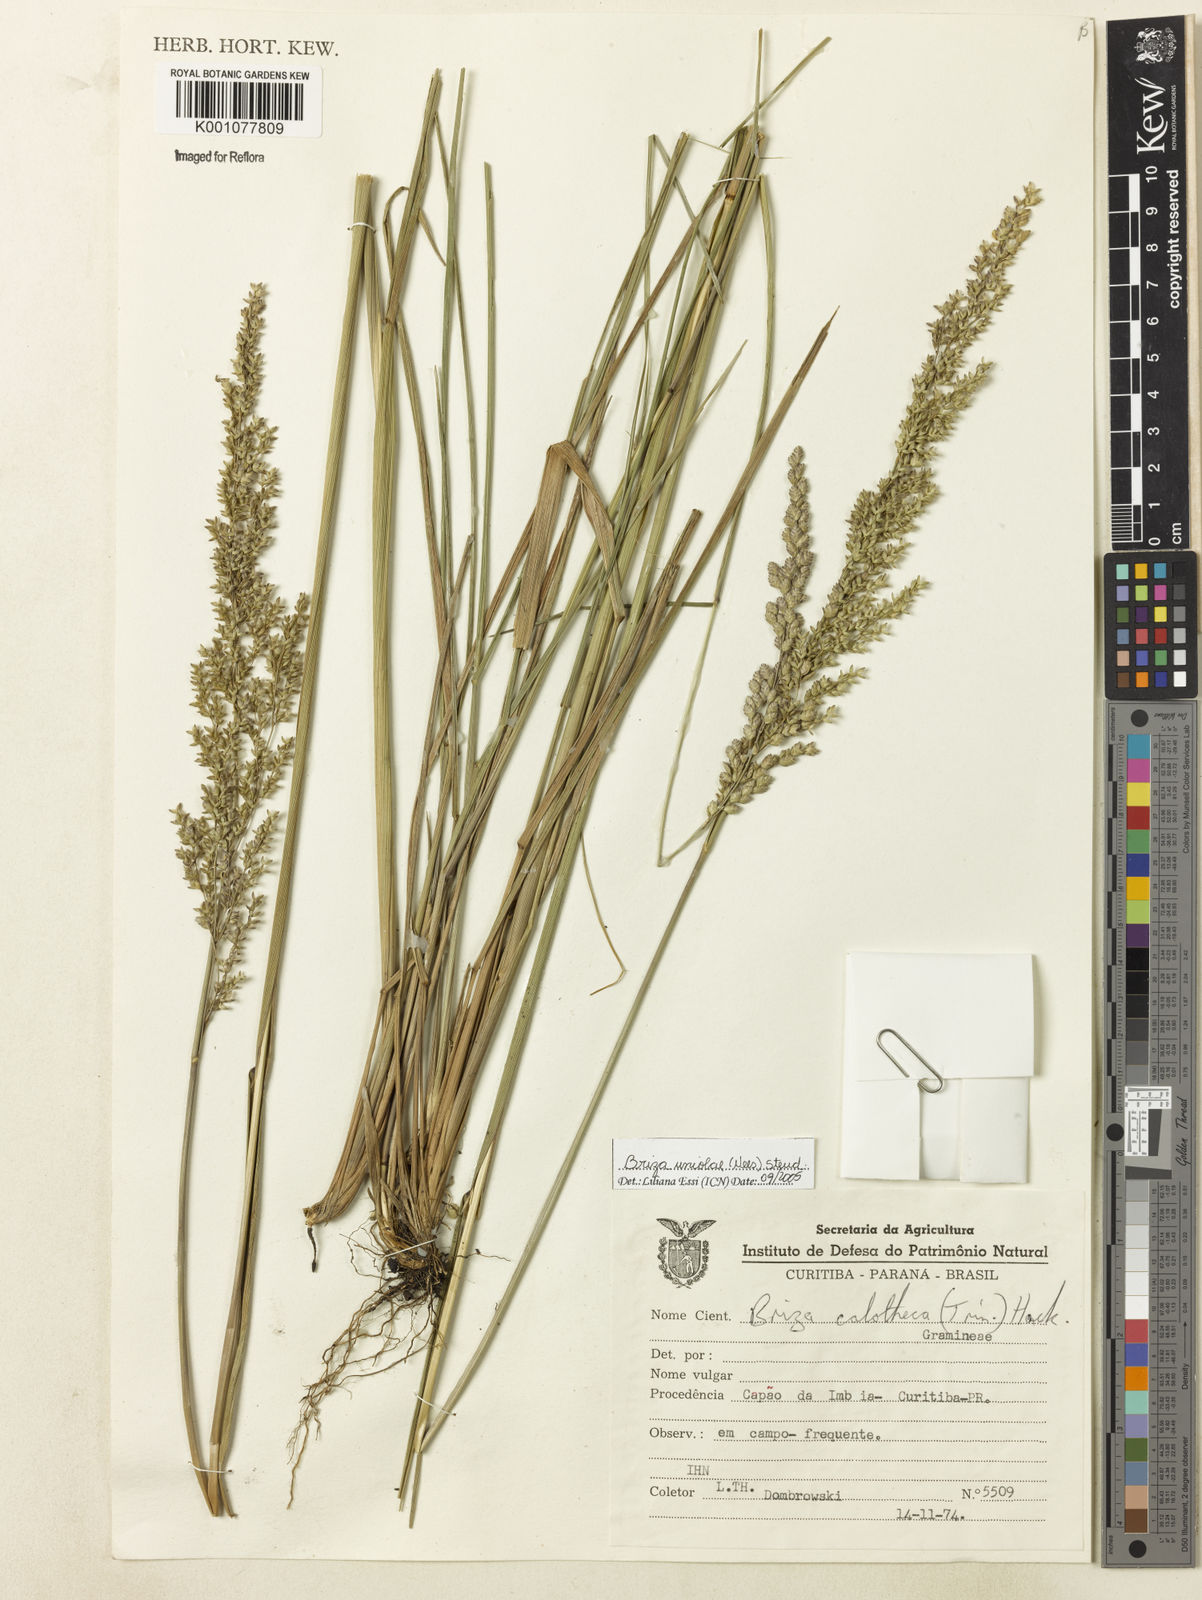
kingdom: Plantae
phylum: Tracheophyta
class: Liliopsida
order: Poales
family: Poaceae
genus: Poidium
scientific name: Poidium uniolae
